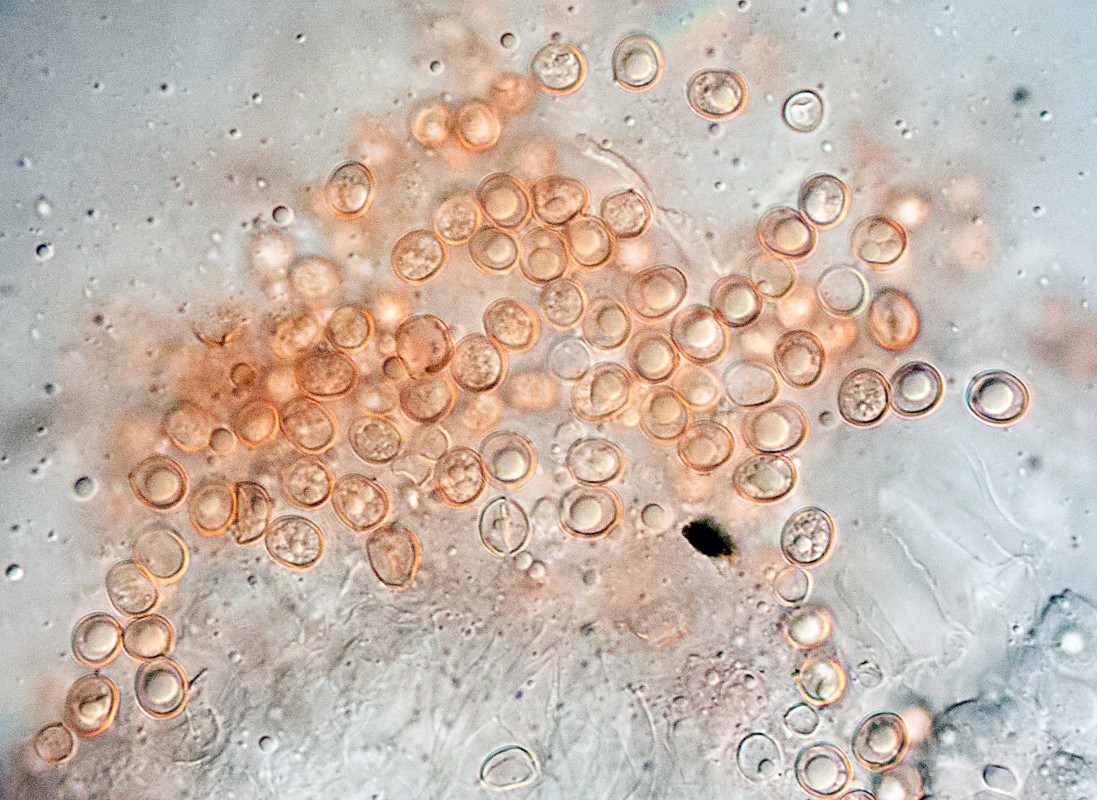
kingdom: Fungi
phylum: Basidiomycota
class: Agaricomycetes
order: Agaricales
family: Pluteaceae
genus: Pluteus
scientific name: Pluteus
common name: pudret skærmhat
